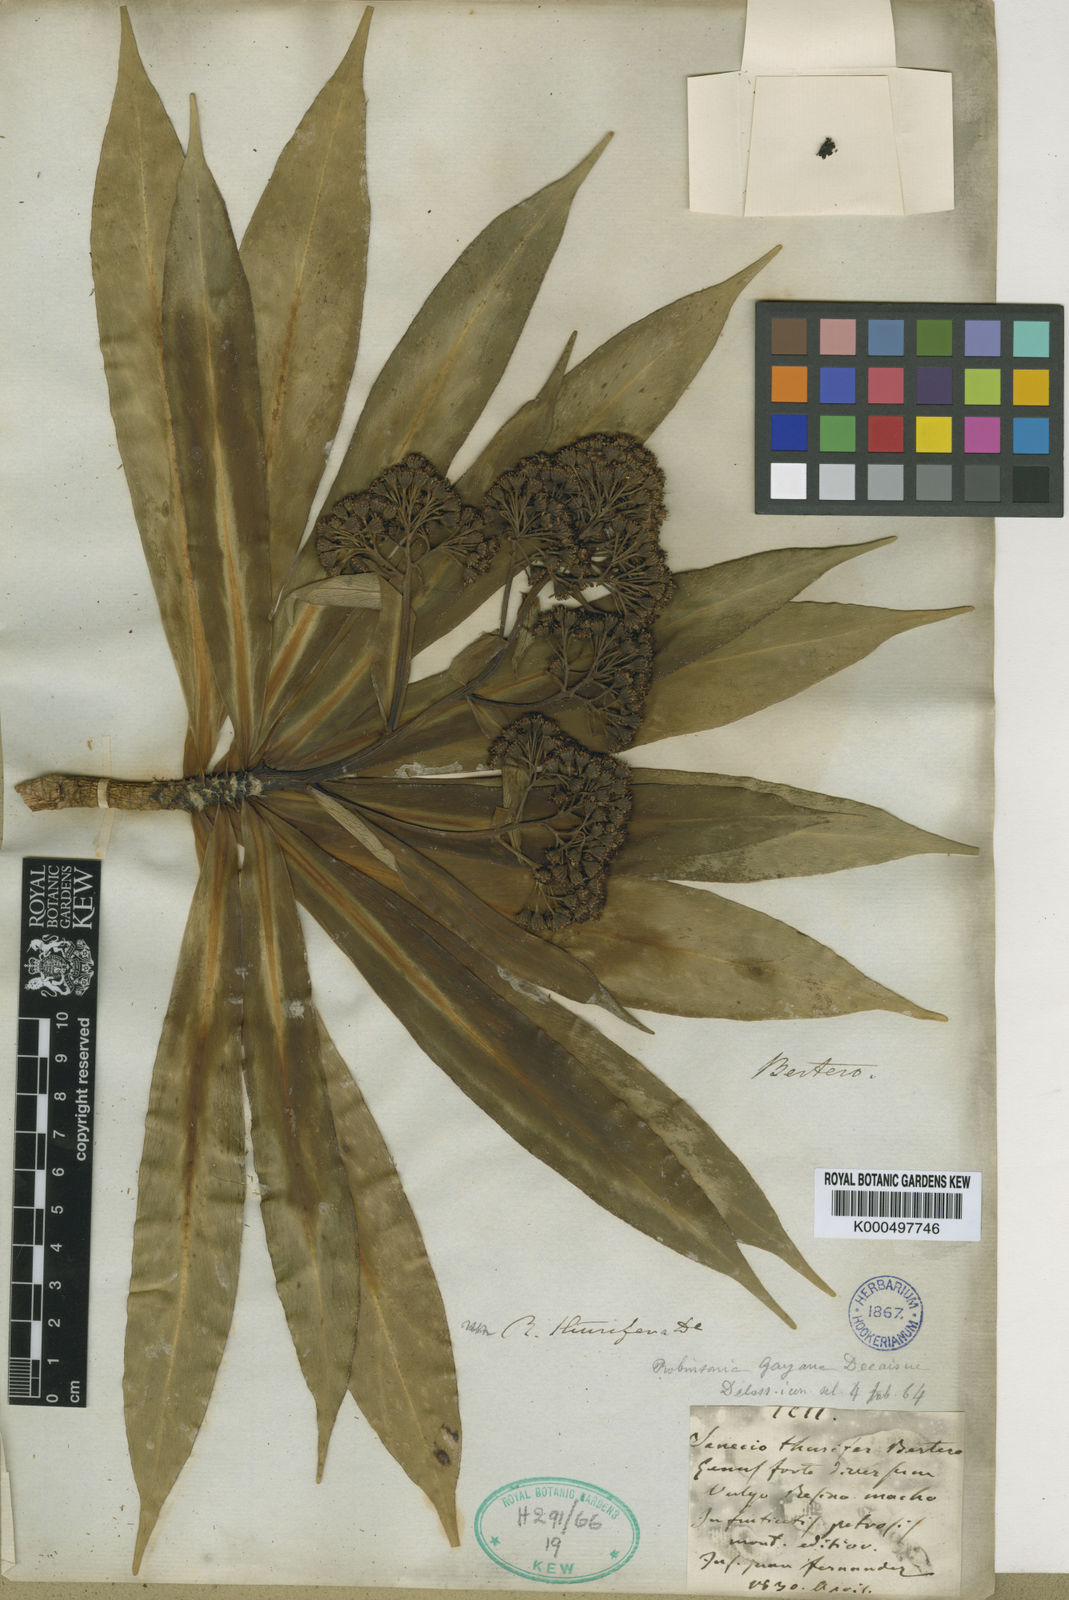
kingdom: Plantae
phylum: Tracheophyta
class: Magnoliopsida
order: Asterales
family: Asteraceae
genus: Robinsonia
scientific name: Robinsonia thurifera
